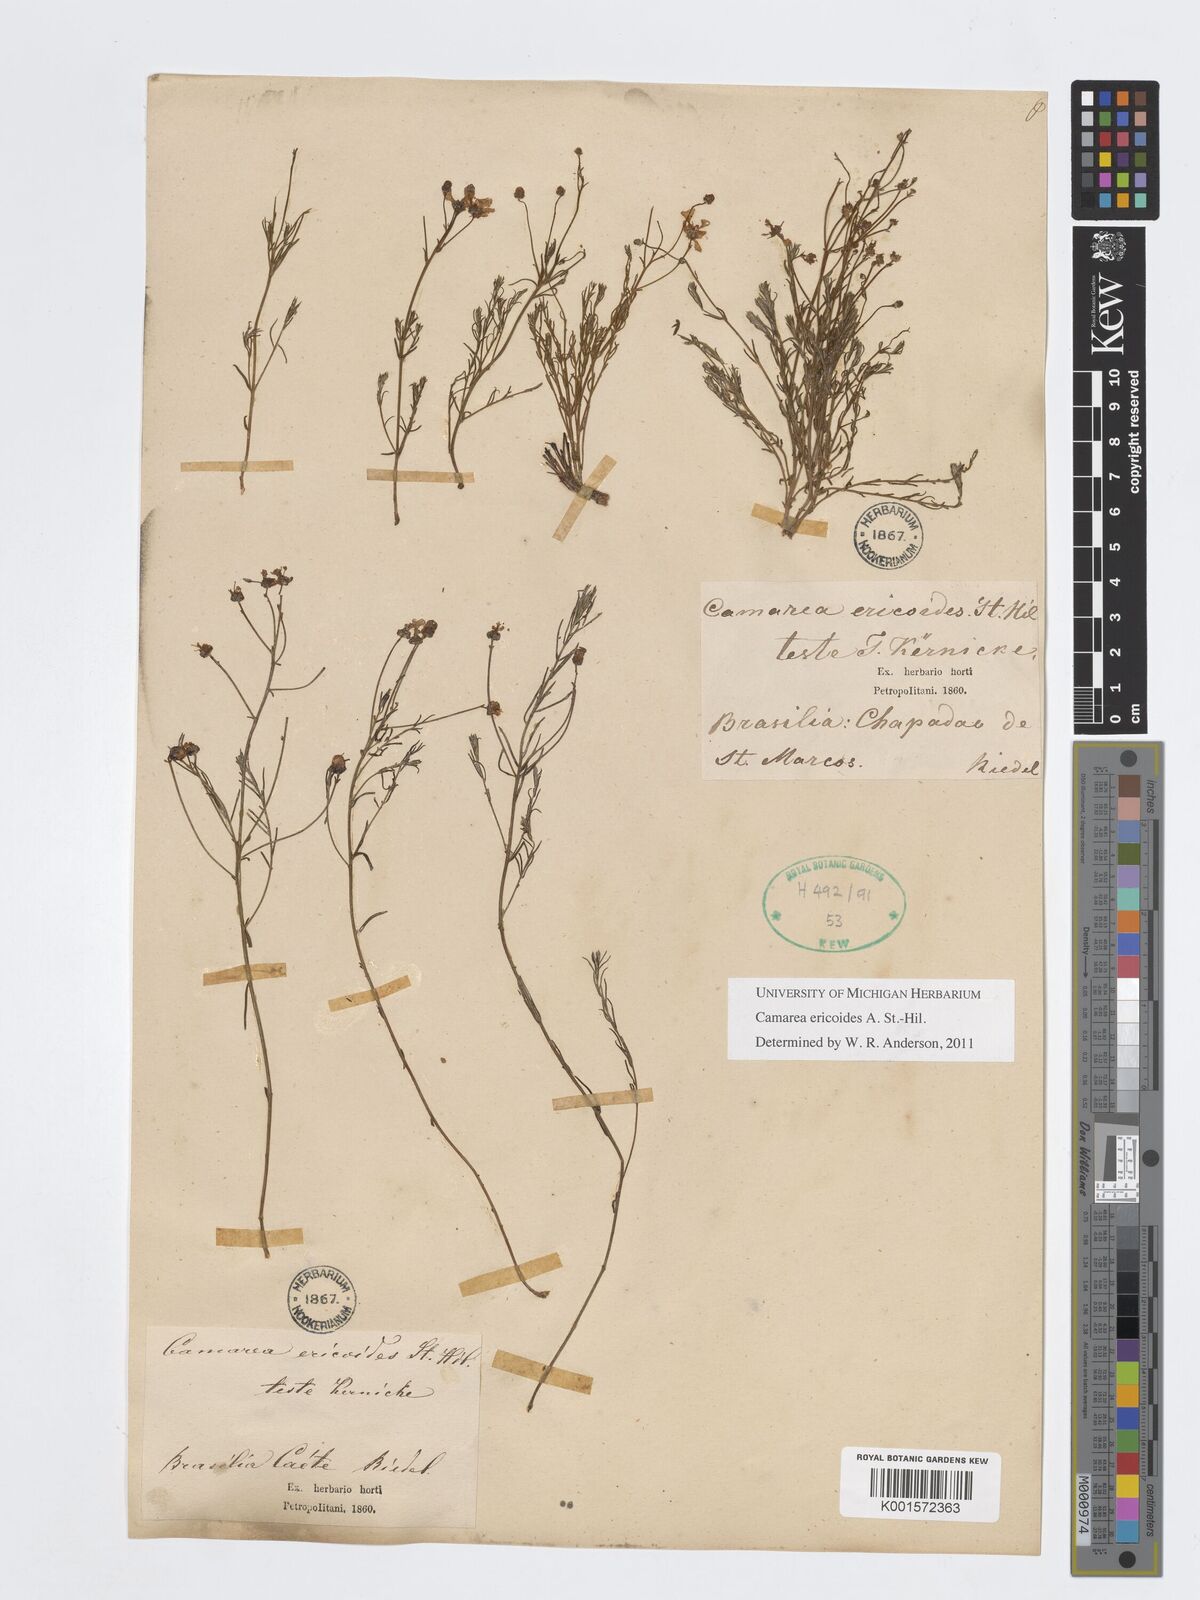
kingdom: Plantae
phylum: Tracheophyta
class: Magnoliopsida
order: Malpighiales
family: Malpighiaceae
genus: Camarea
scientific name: Camarea ericoides
